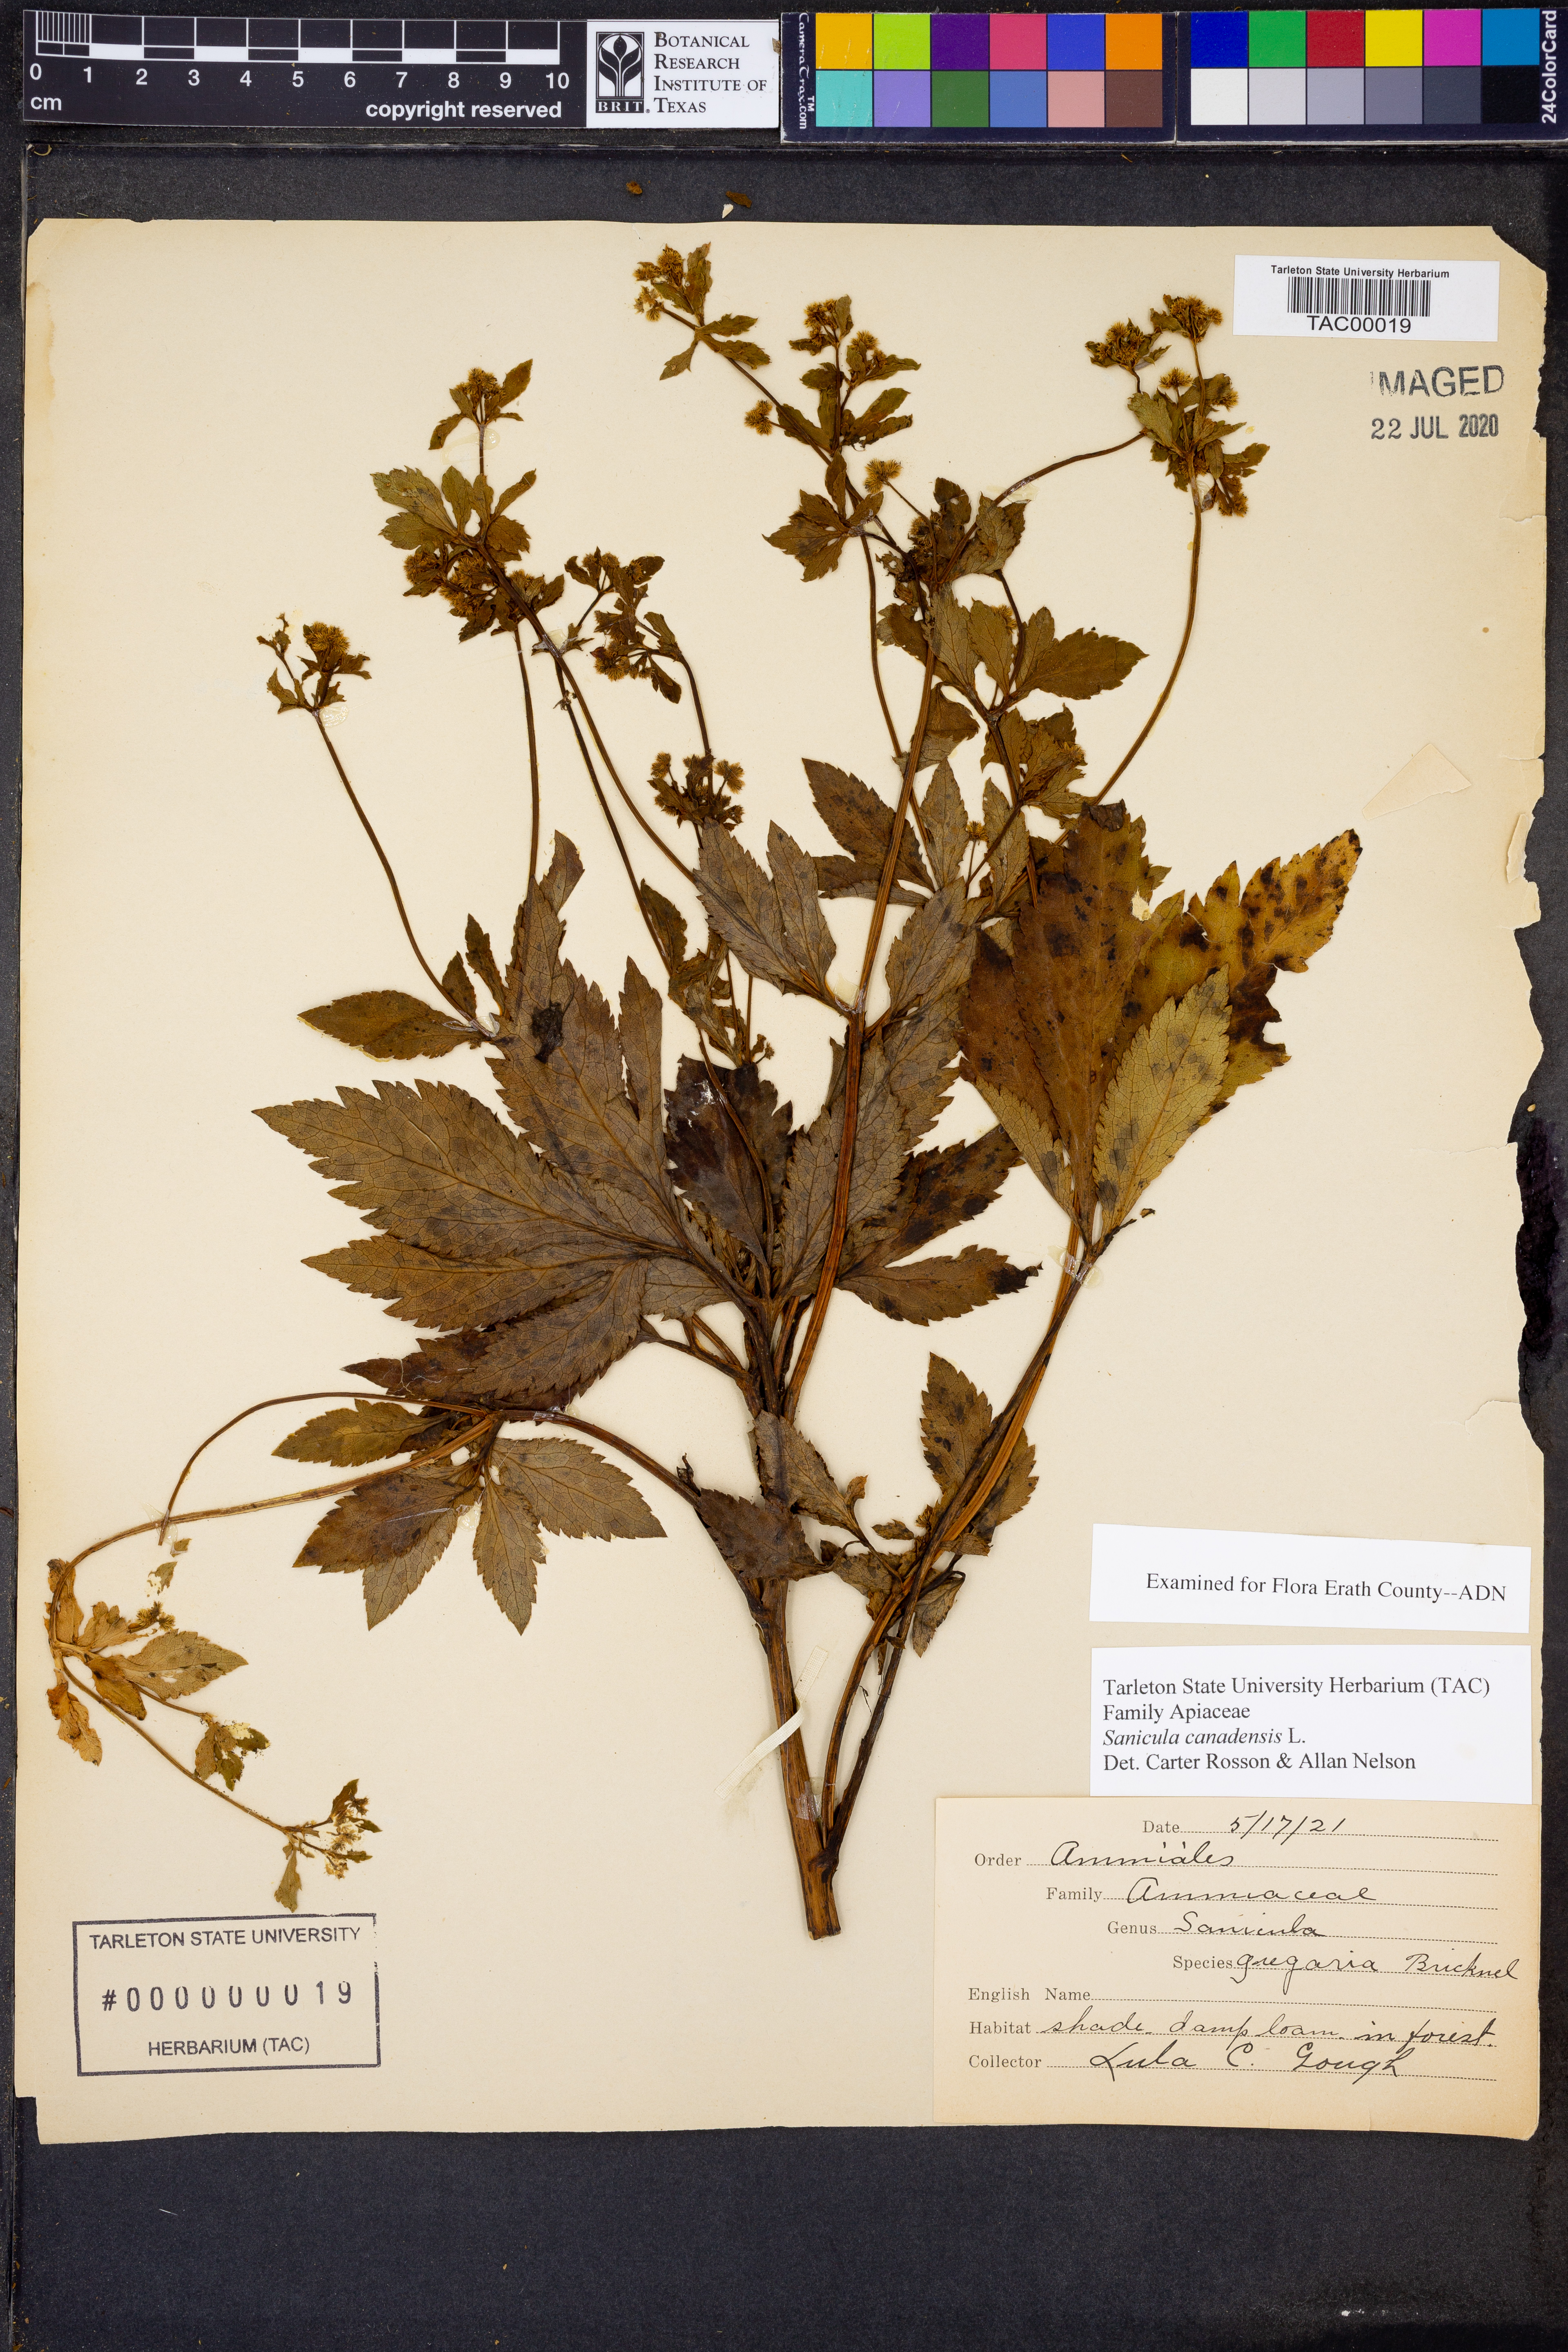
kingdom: Plantae
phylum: Tracheophyta
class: Magnoliopsida
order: Apiales
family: Apiaceae
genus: Sanicula
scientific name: Sanicula canadensis
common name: Canada sanicle
